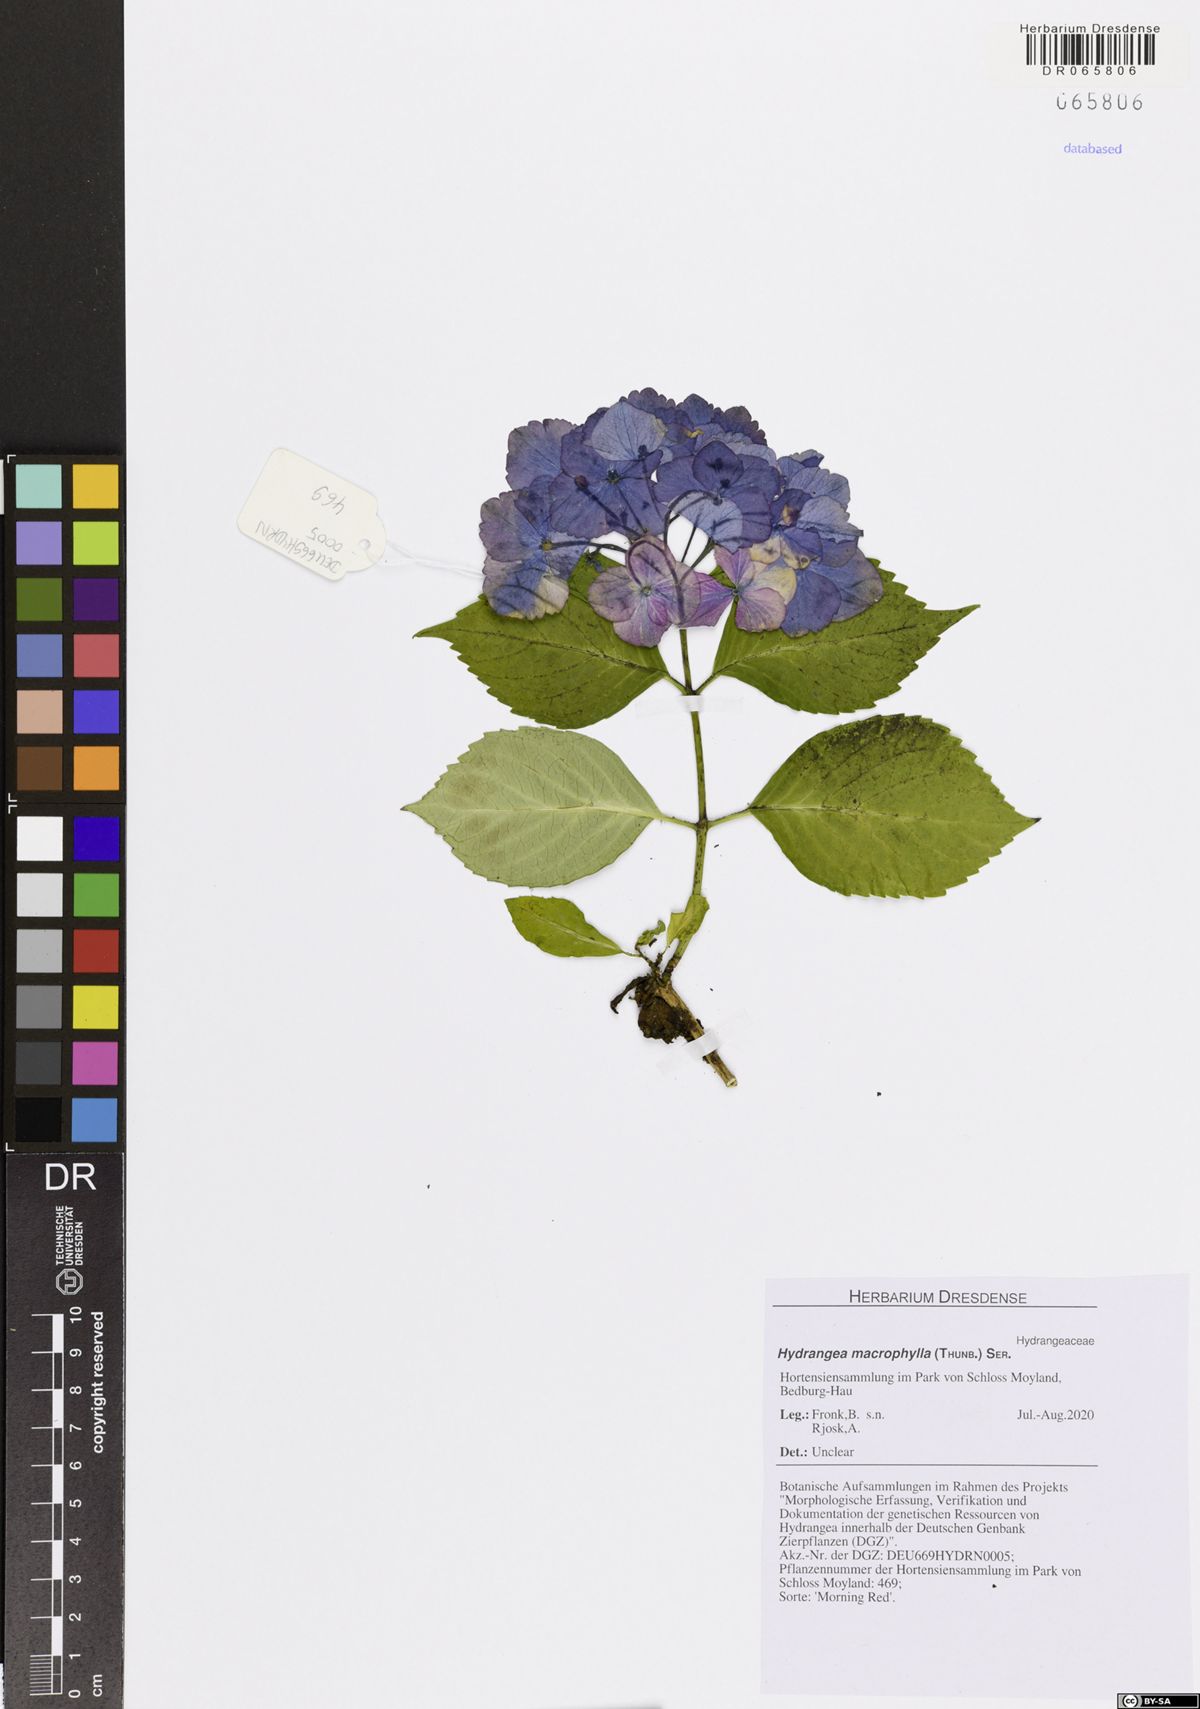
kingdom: Plantae
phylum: Tracheophyta
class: Magnoliopsida
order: Cornales
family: Hydrangeaceae
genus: Hydrangea
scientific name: Hydrangea macrophylla
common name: Hydrangea
